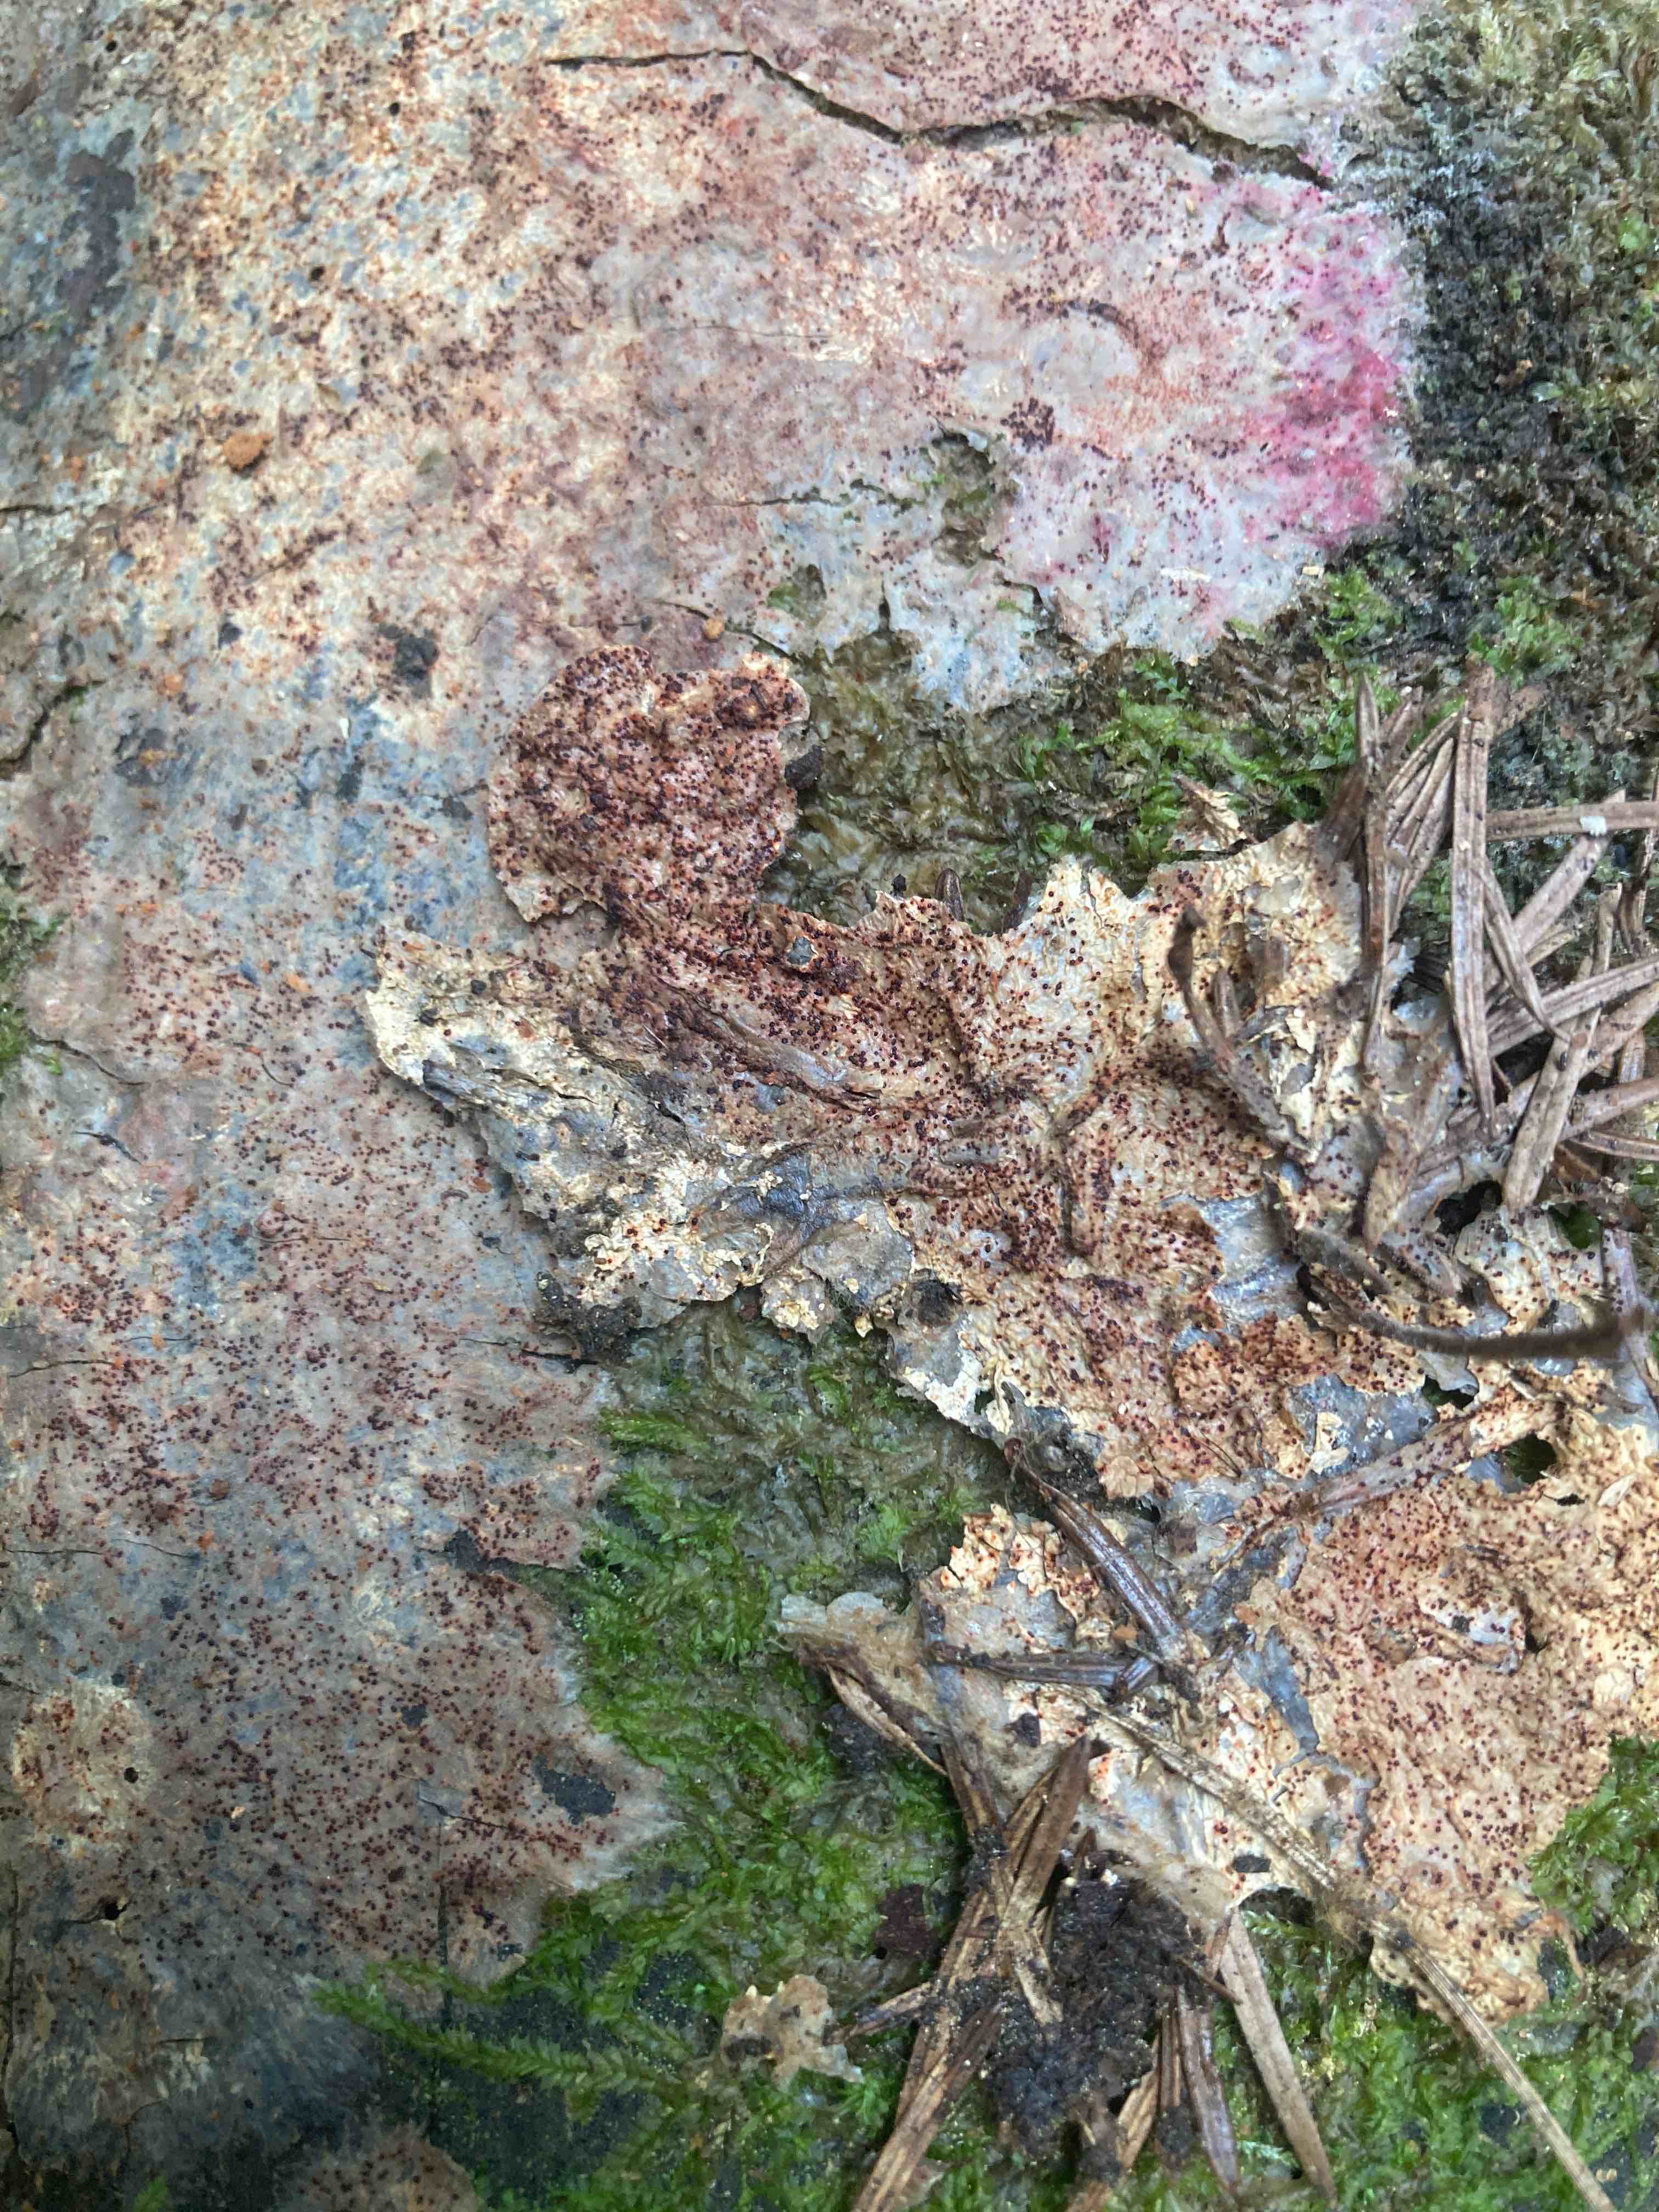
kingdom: Fungi
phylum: Ascomycota
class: Sordariomycetes
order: Hypocreales
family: Hypocreaceae
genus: Hypomyces
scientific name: Hypomyces
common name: snylteskorpe
